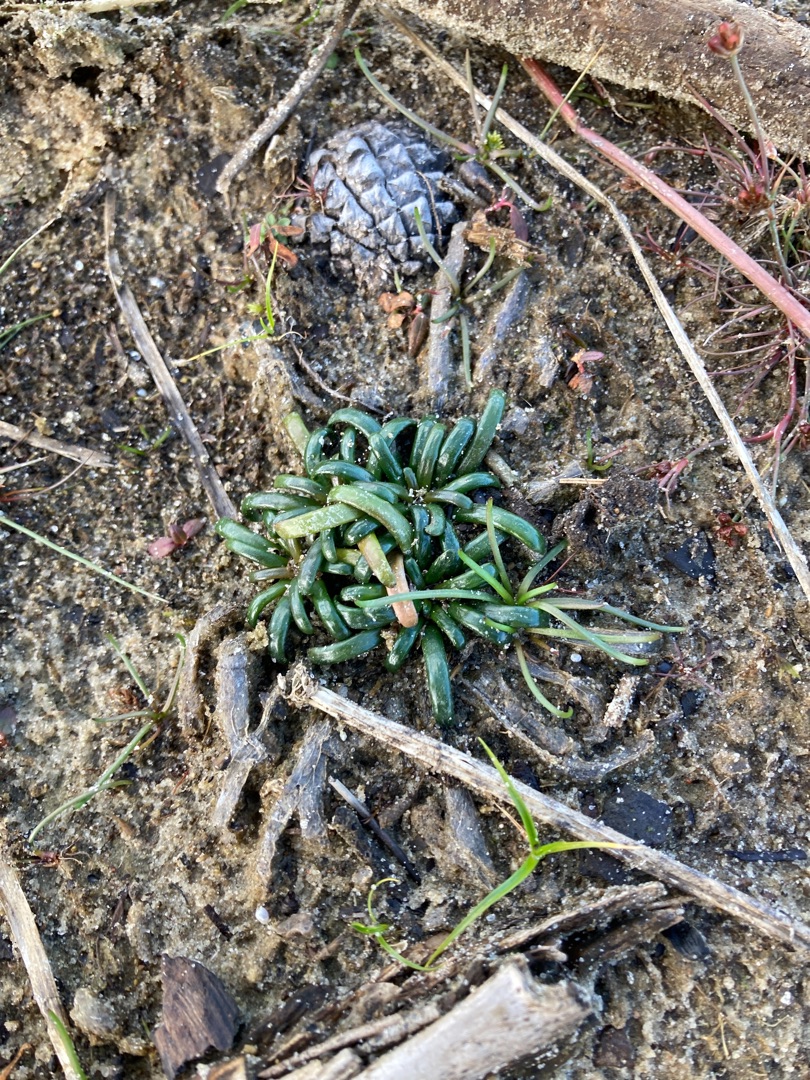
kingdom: Plantae
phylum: Tracheophyta
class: Magnoliopsida
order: Asterales
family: Campanulaceae
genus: Lobelia
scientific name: Lobelia dortmanna
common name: Tvepibet lobelie
